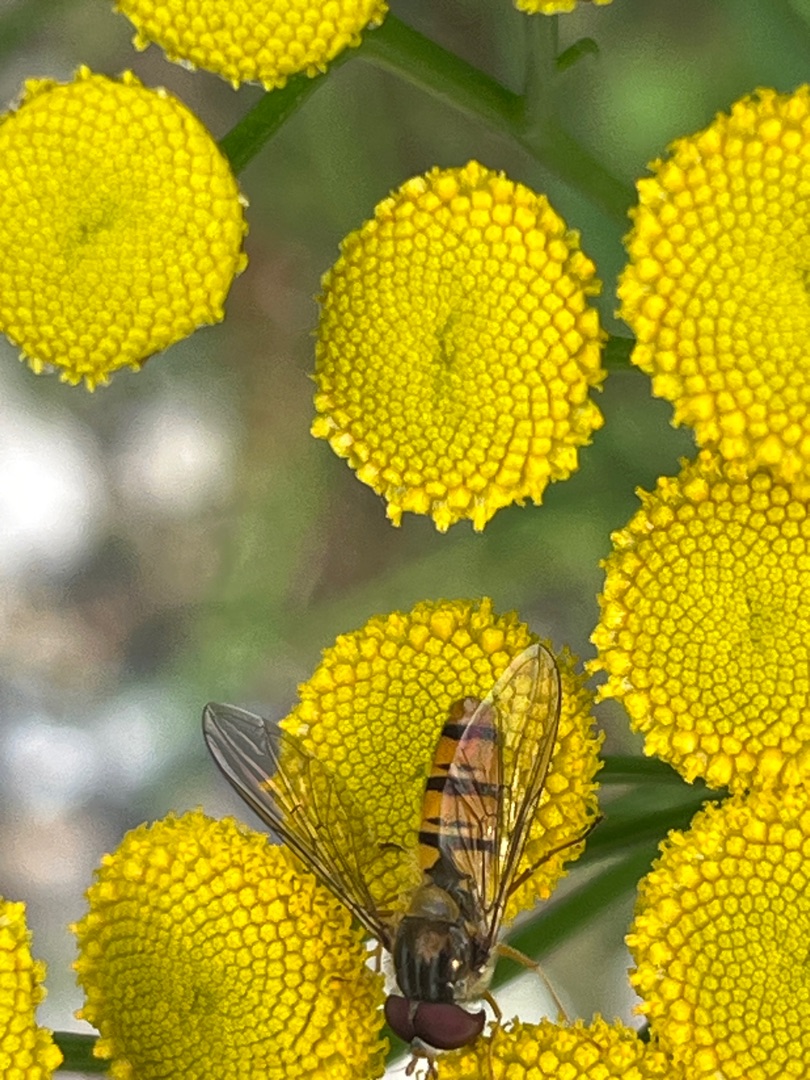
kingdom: Animalia
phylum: Arthropoda
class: Insecta
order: Diptera
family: Syrphidae
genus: Episyrphus
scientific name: Episyrphus balteatus
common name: Dobbeltbåndet svirreflue
